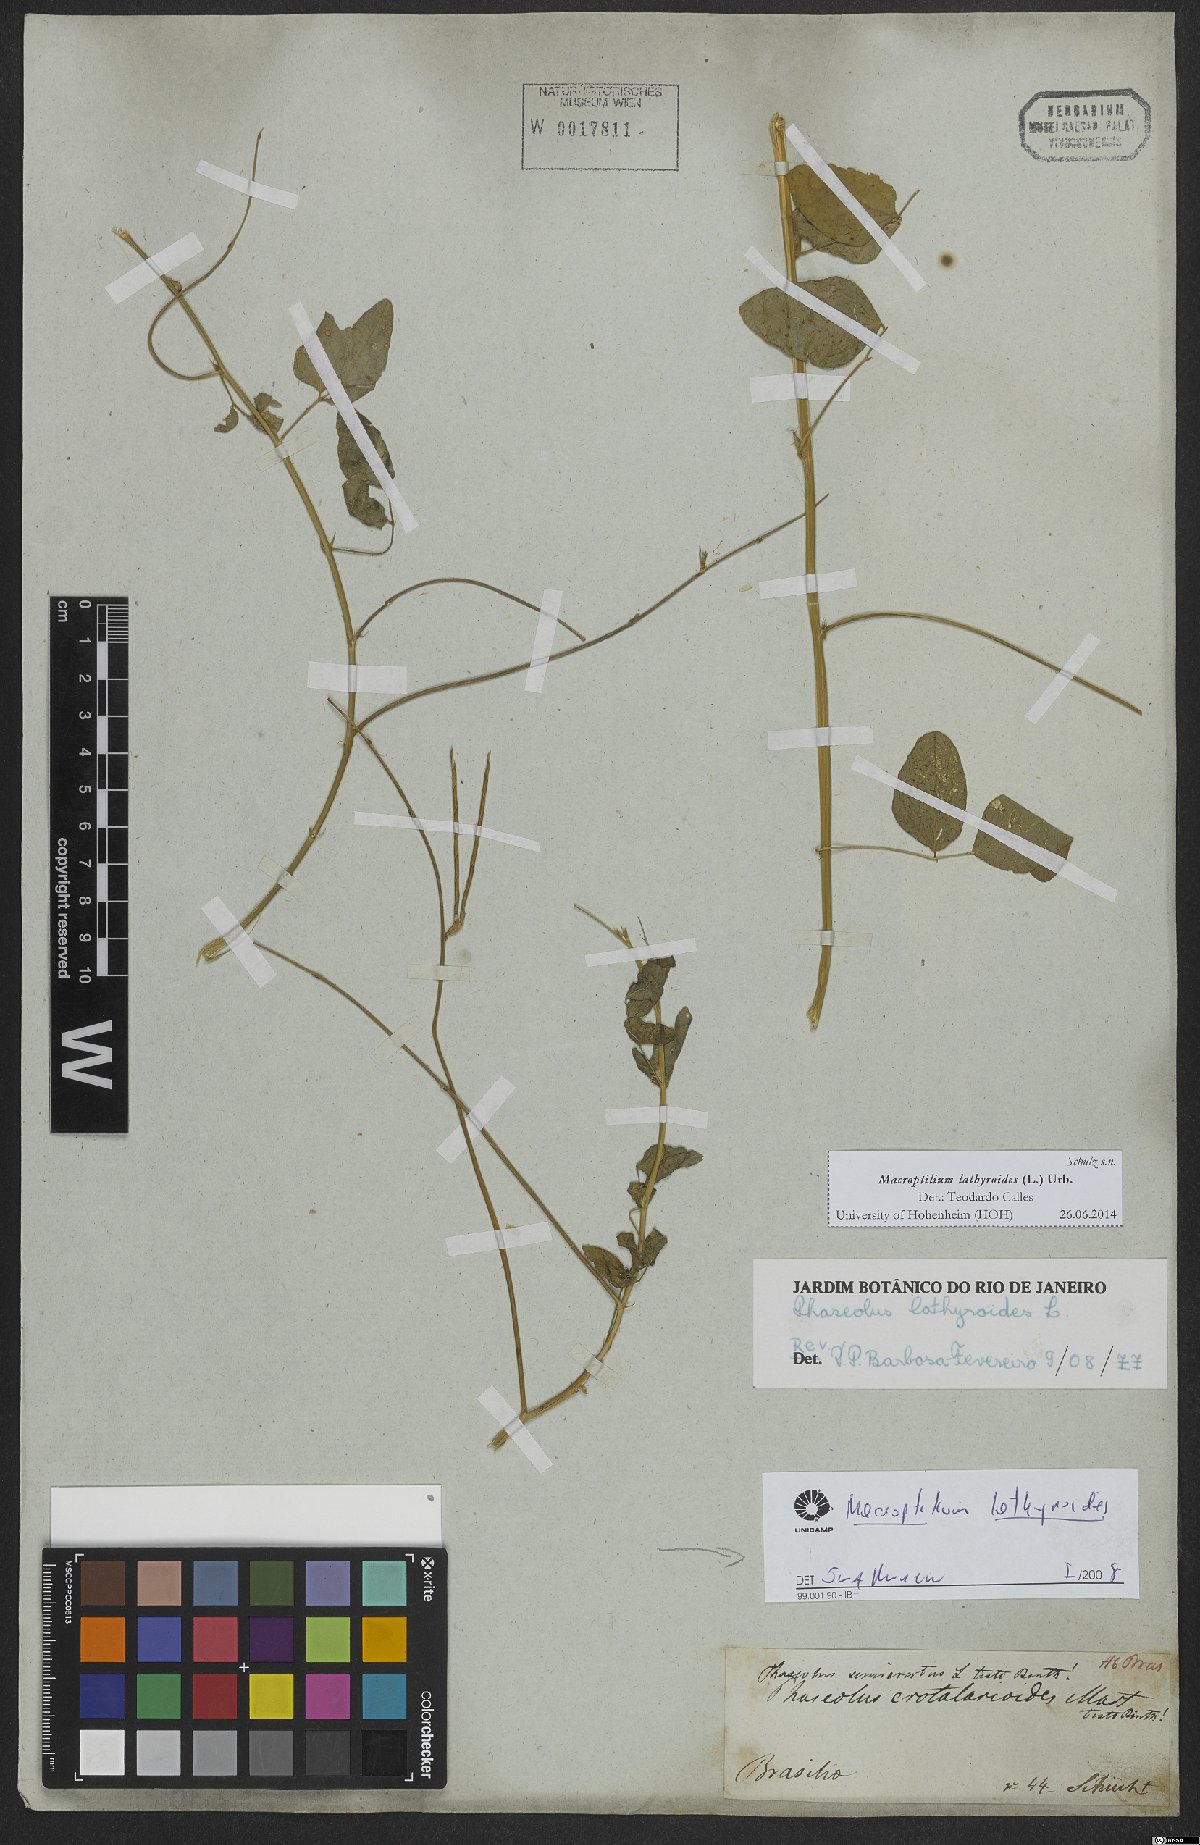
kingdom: Plantae
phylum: Tracheophyta
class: Magnoliopsida
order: Fabales
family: Fabaceae
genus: Macroptilium
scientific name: Macroptilium lathyroides
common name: Wild bushbean
